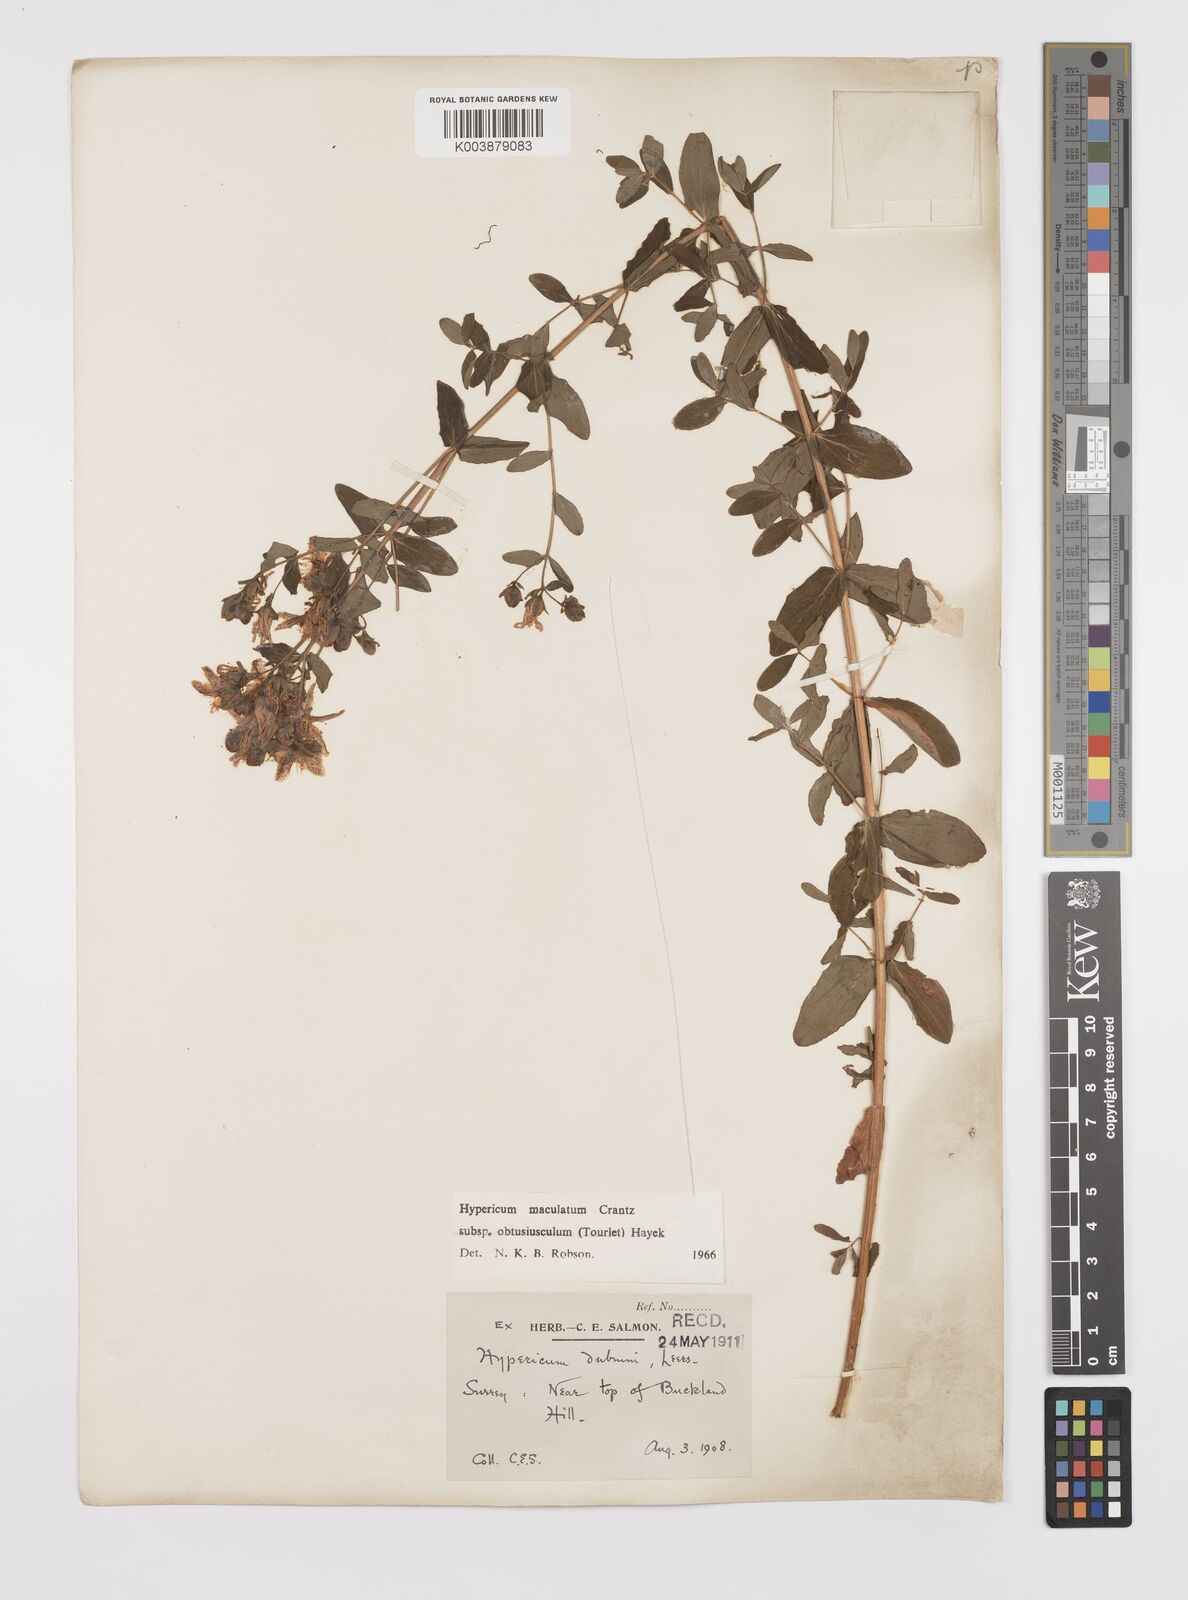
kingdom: Plantae
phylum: Tracheophyta
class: Magnoliopsida
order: Malpighiales
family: Hypericaceae
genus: Hypericum
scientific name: Hypericum dubium
